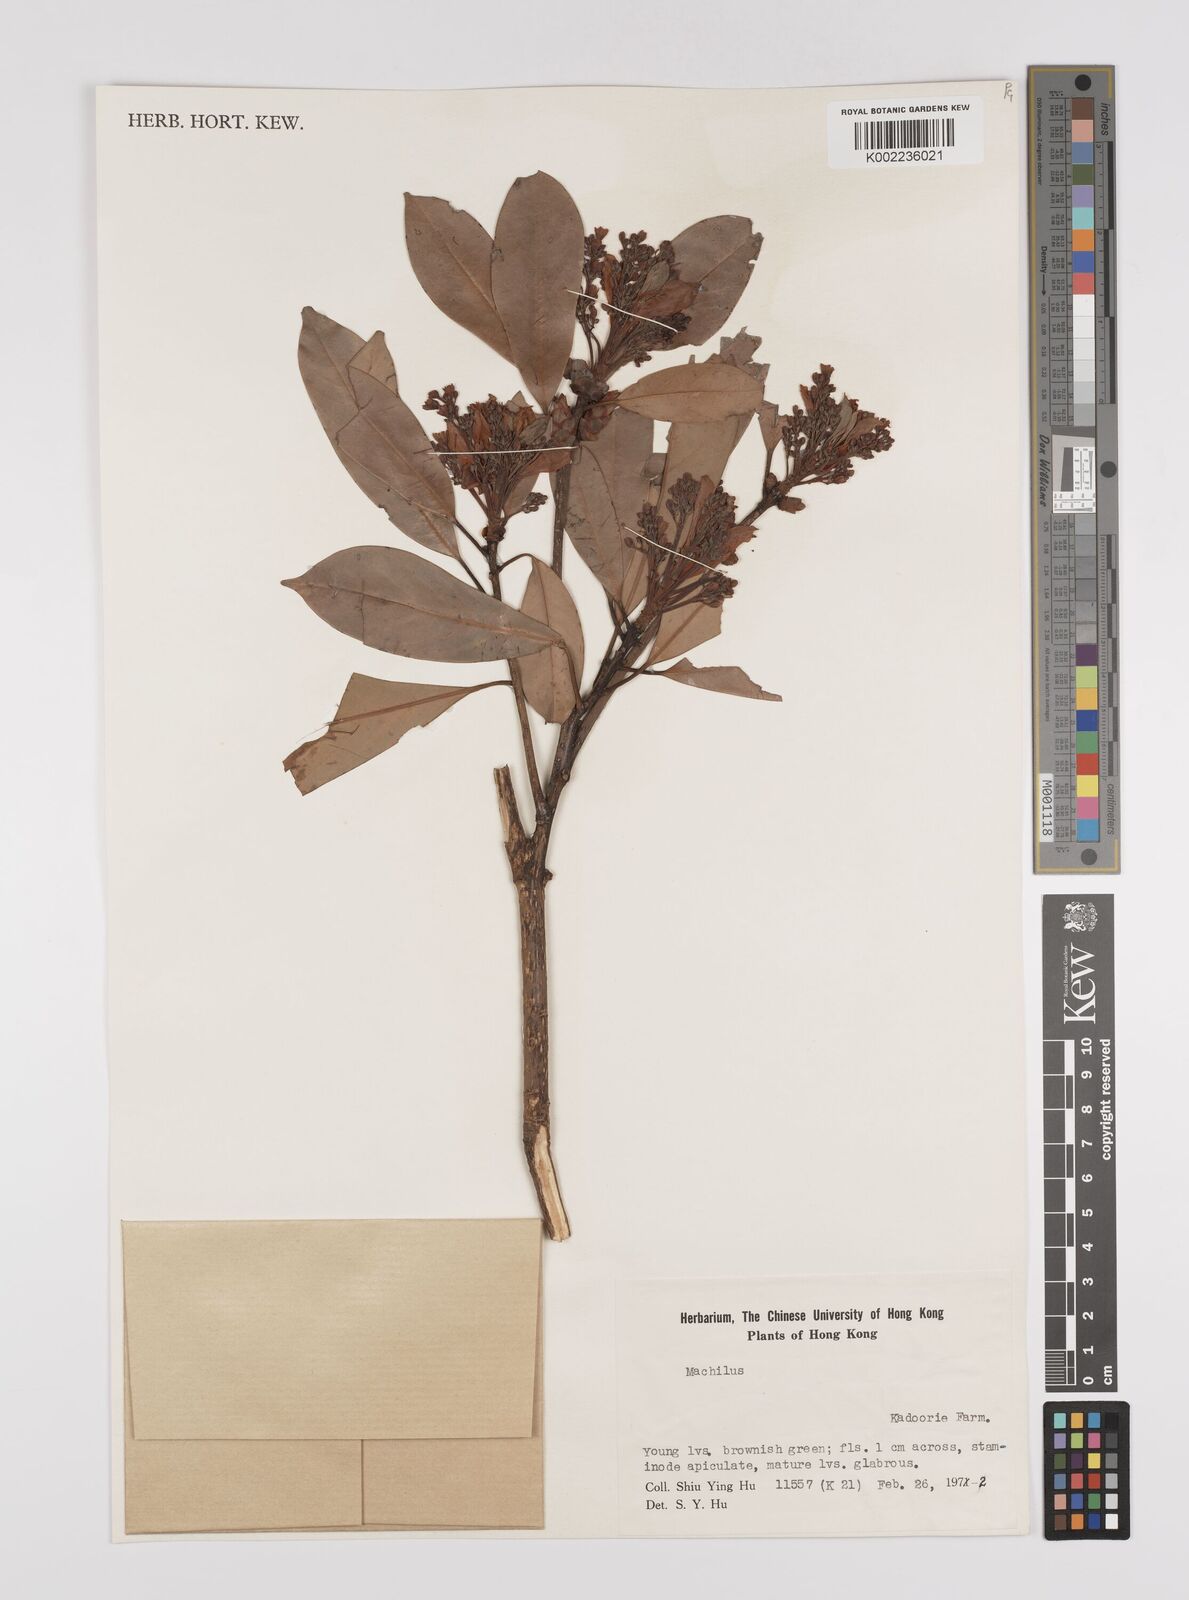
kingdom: Plantae
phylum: Tracheophyta
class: Magnoliopsida
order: Laurales
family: Lauraceae
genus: Persea
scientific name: Persea
